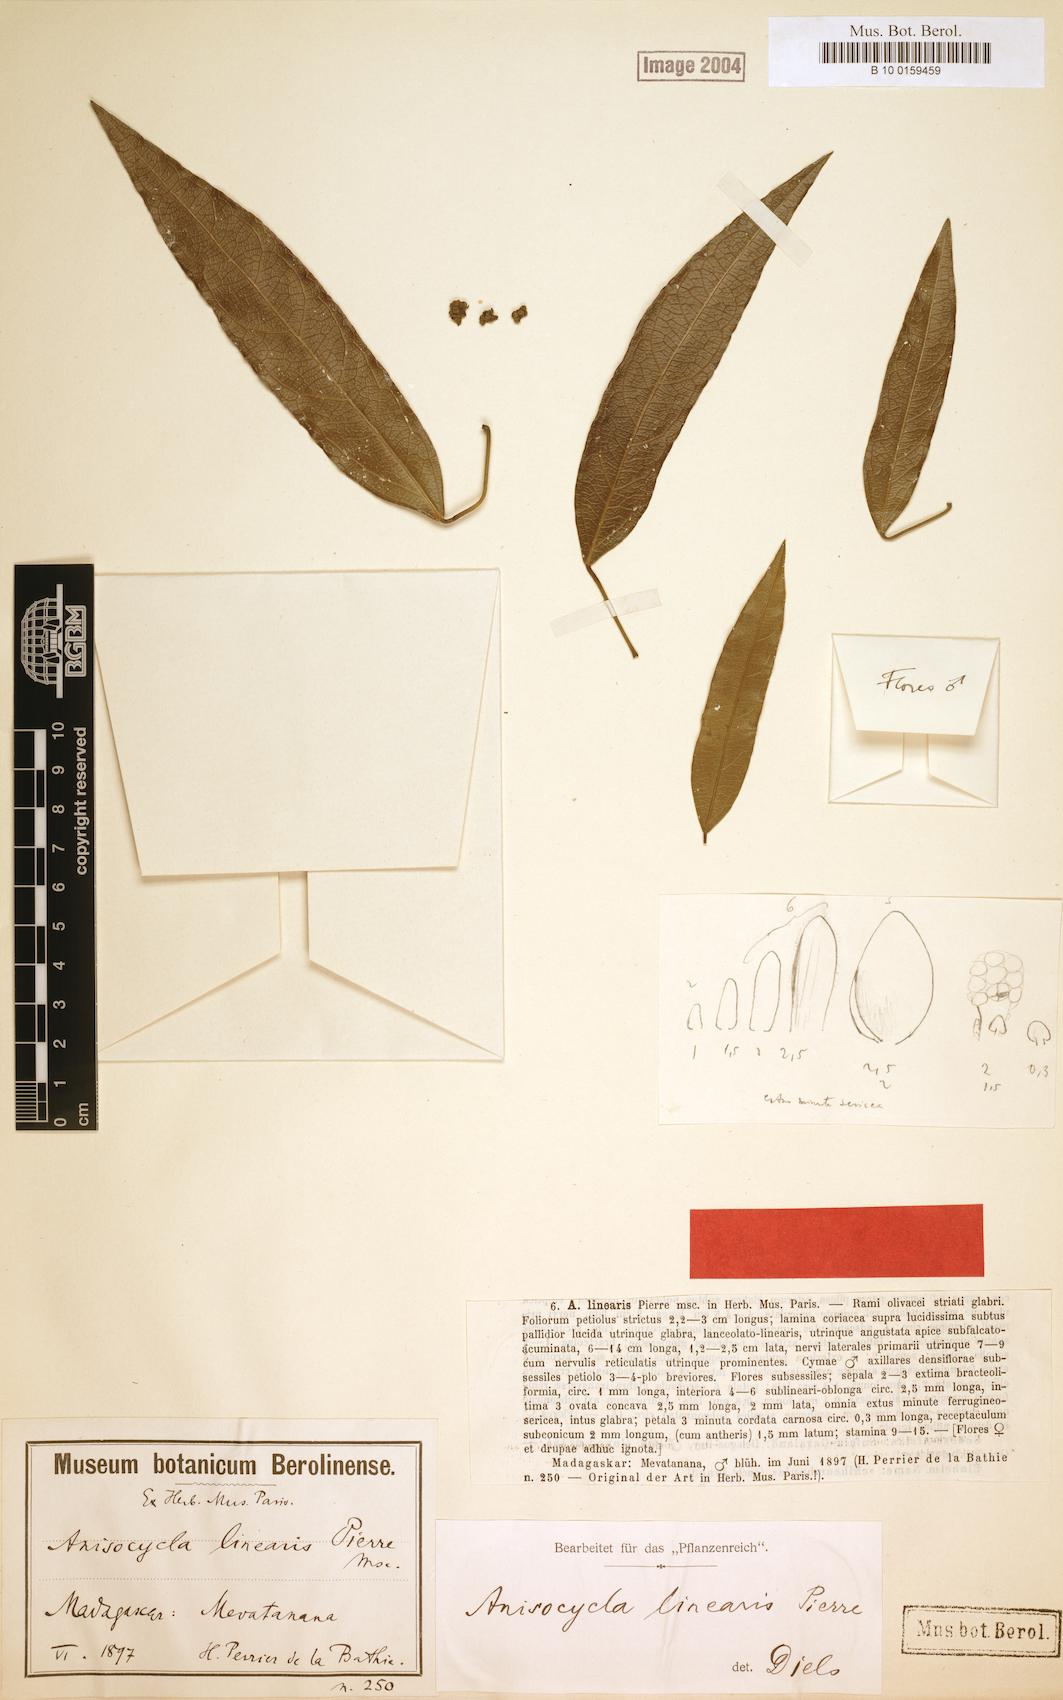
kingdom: Plantae
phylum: Tracheophyta
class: Magnoliopsida
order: Ranunculales
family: Menispermaceae
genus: Anisocycla
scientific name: Anisocycla linearis
